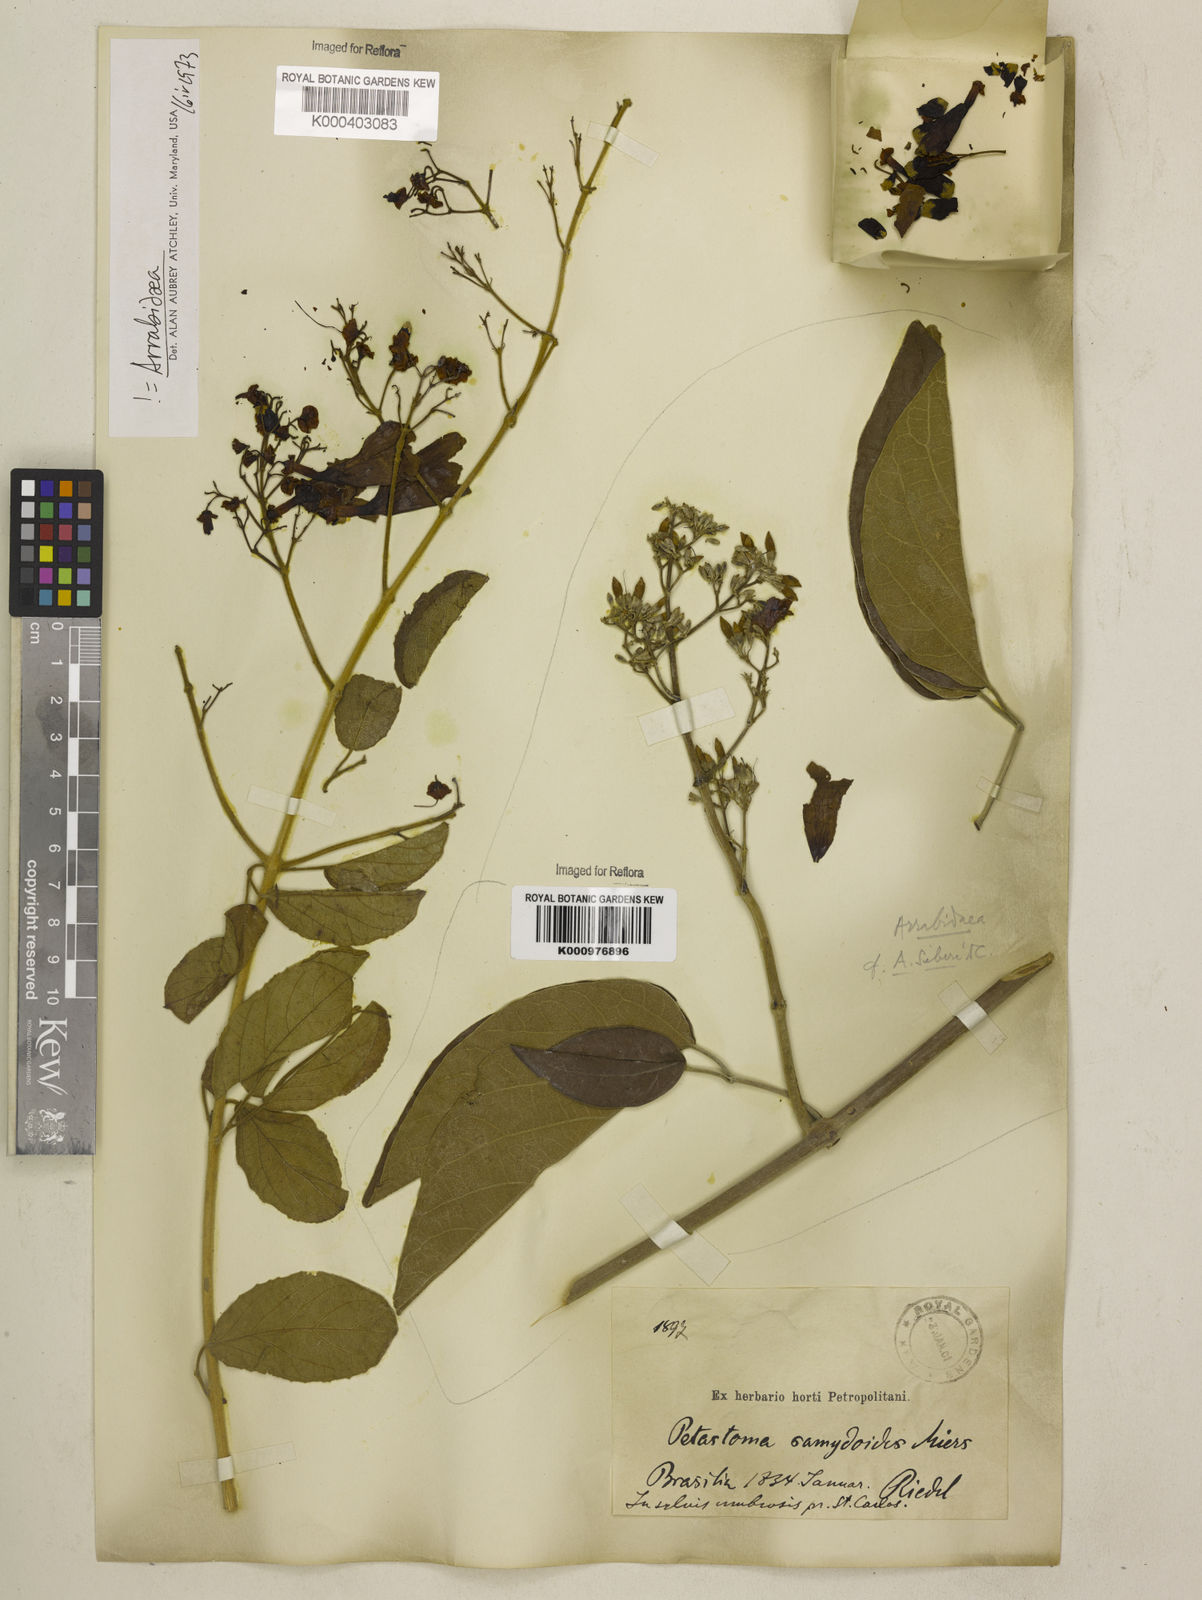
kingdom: Plantae
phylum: Tracheophyta
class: Magnoliopsida
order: Lamiales
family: Bignoniaceae
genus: Fridericia
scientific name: Fridericia samydoides
